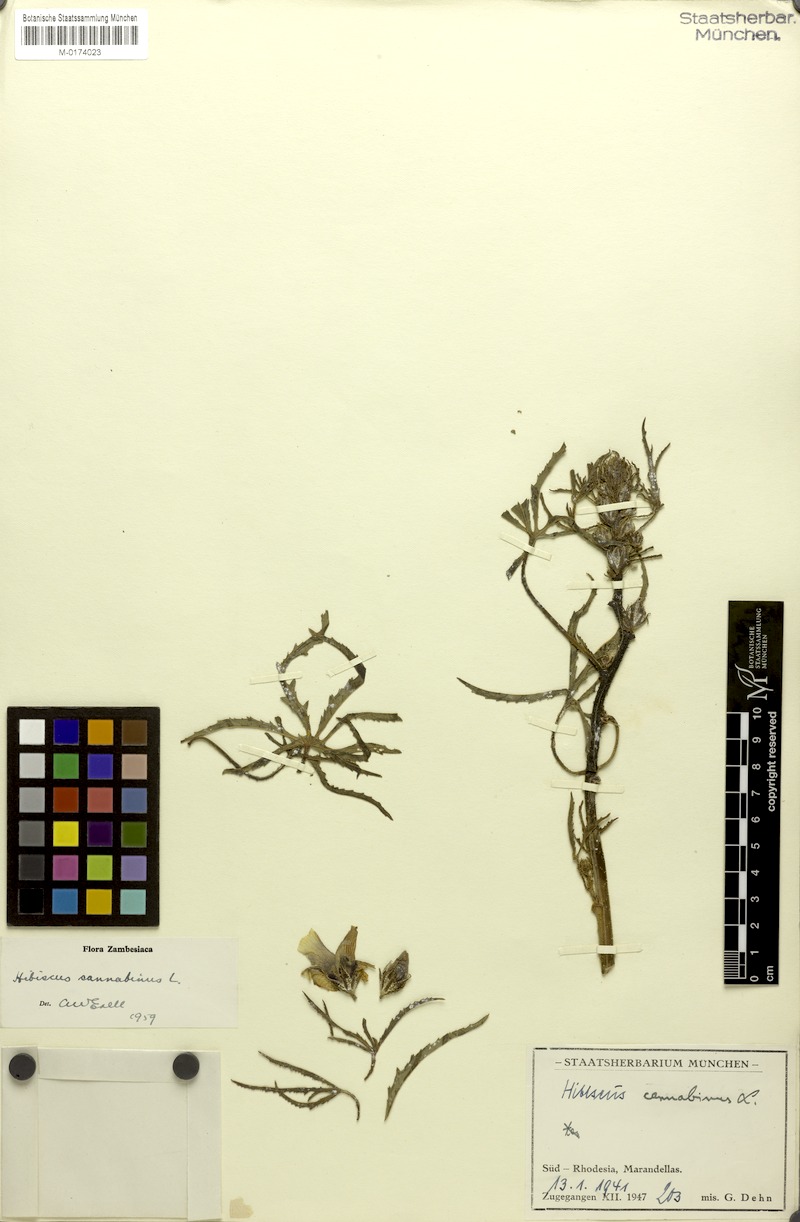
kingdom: Plantae
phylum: Tracheophyta
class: Magnoliopsida
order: Malvales
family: Malvaceae
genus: Hibiscus
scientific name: Hibiscus cannabinus
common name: Brown indianhemp
